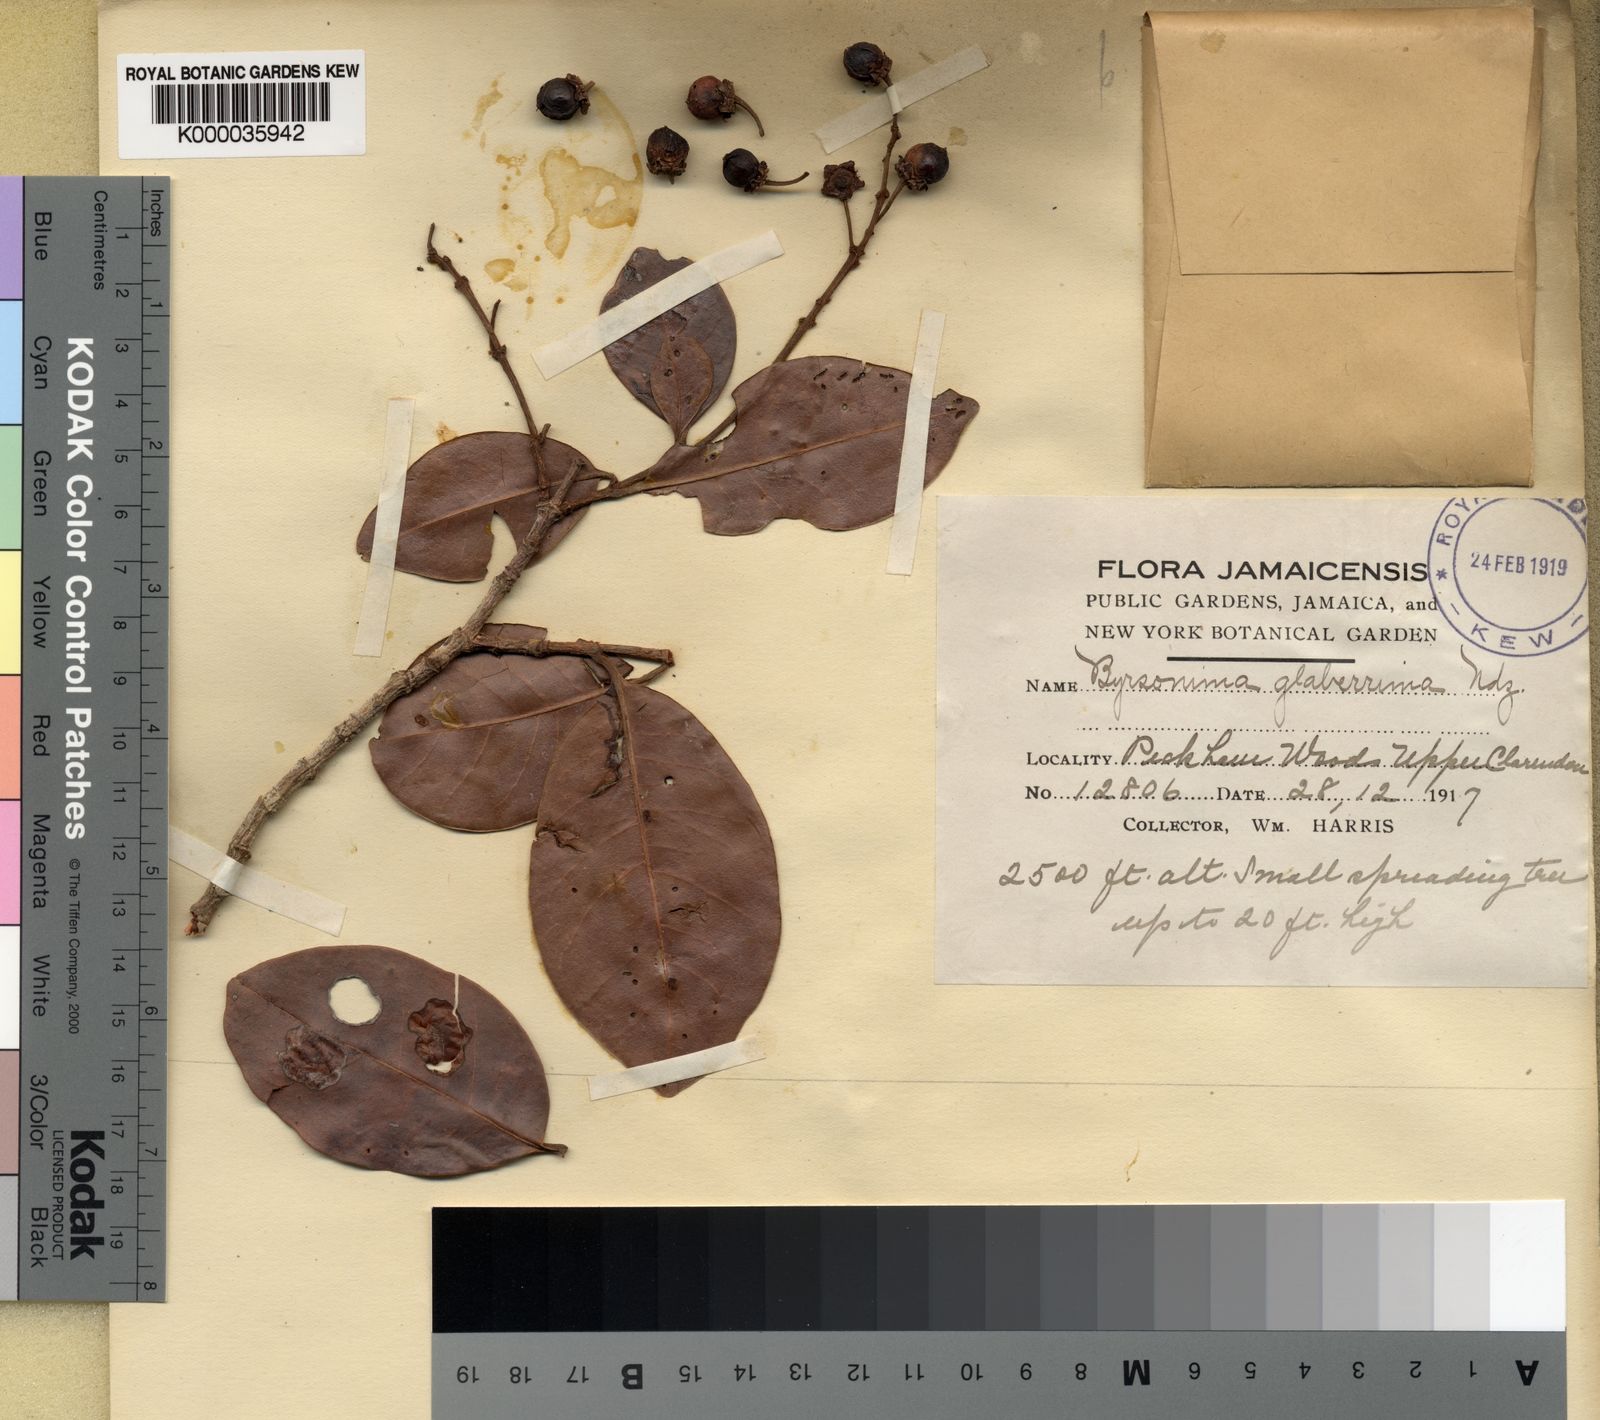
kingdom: Plantae
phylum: Tracheophyta
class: Magnoliopsida
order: Malpighiales
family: Malpighiaceae
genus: Byrsonima
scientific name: Byrsonima trinitensis
